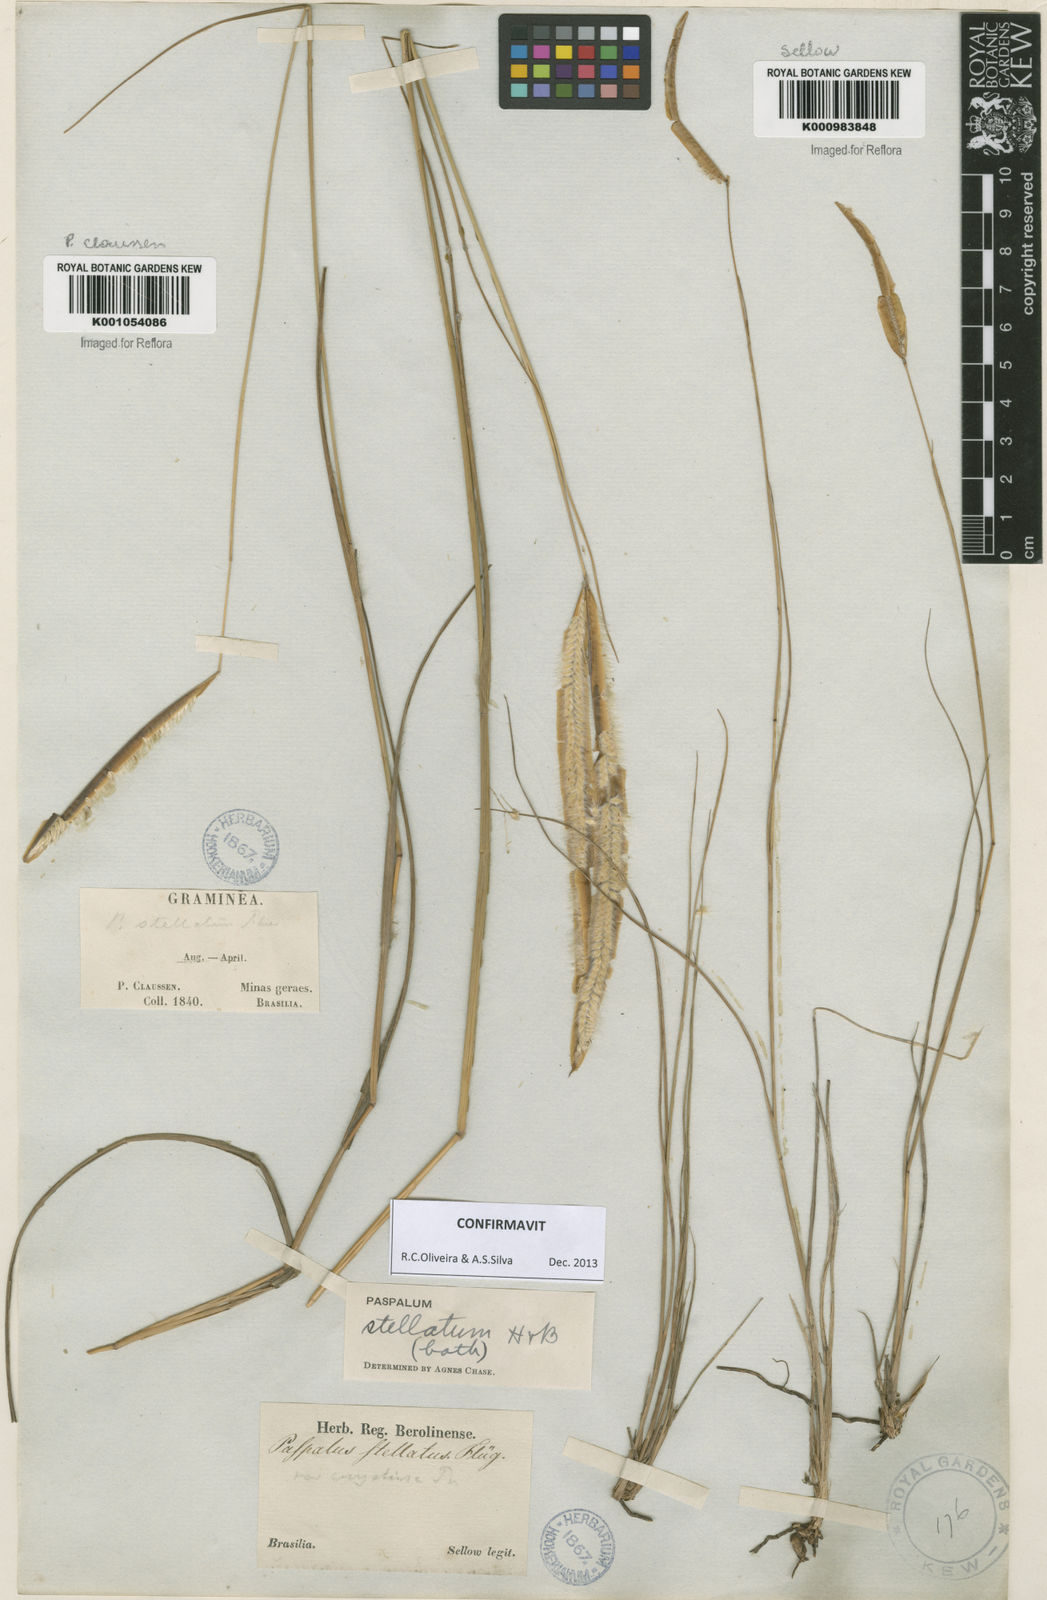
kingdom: Plantae
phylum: Tracheophyta
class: Liliopsida
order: Poales
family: Poaceae
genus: Paspalum
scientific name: Paspalum
